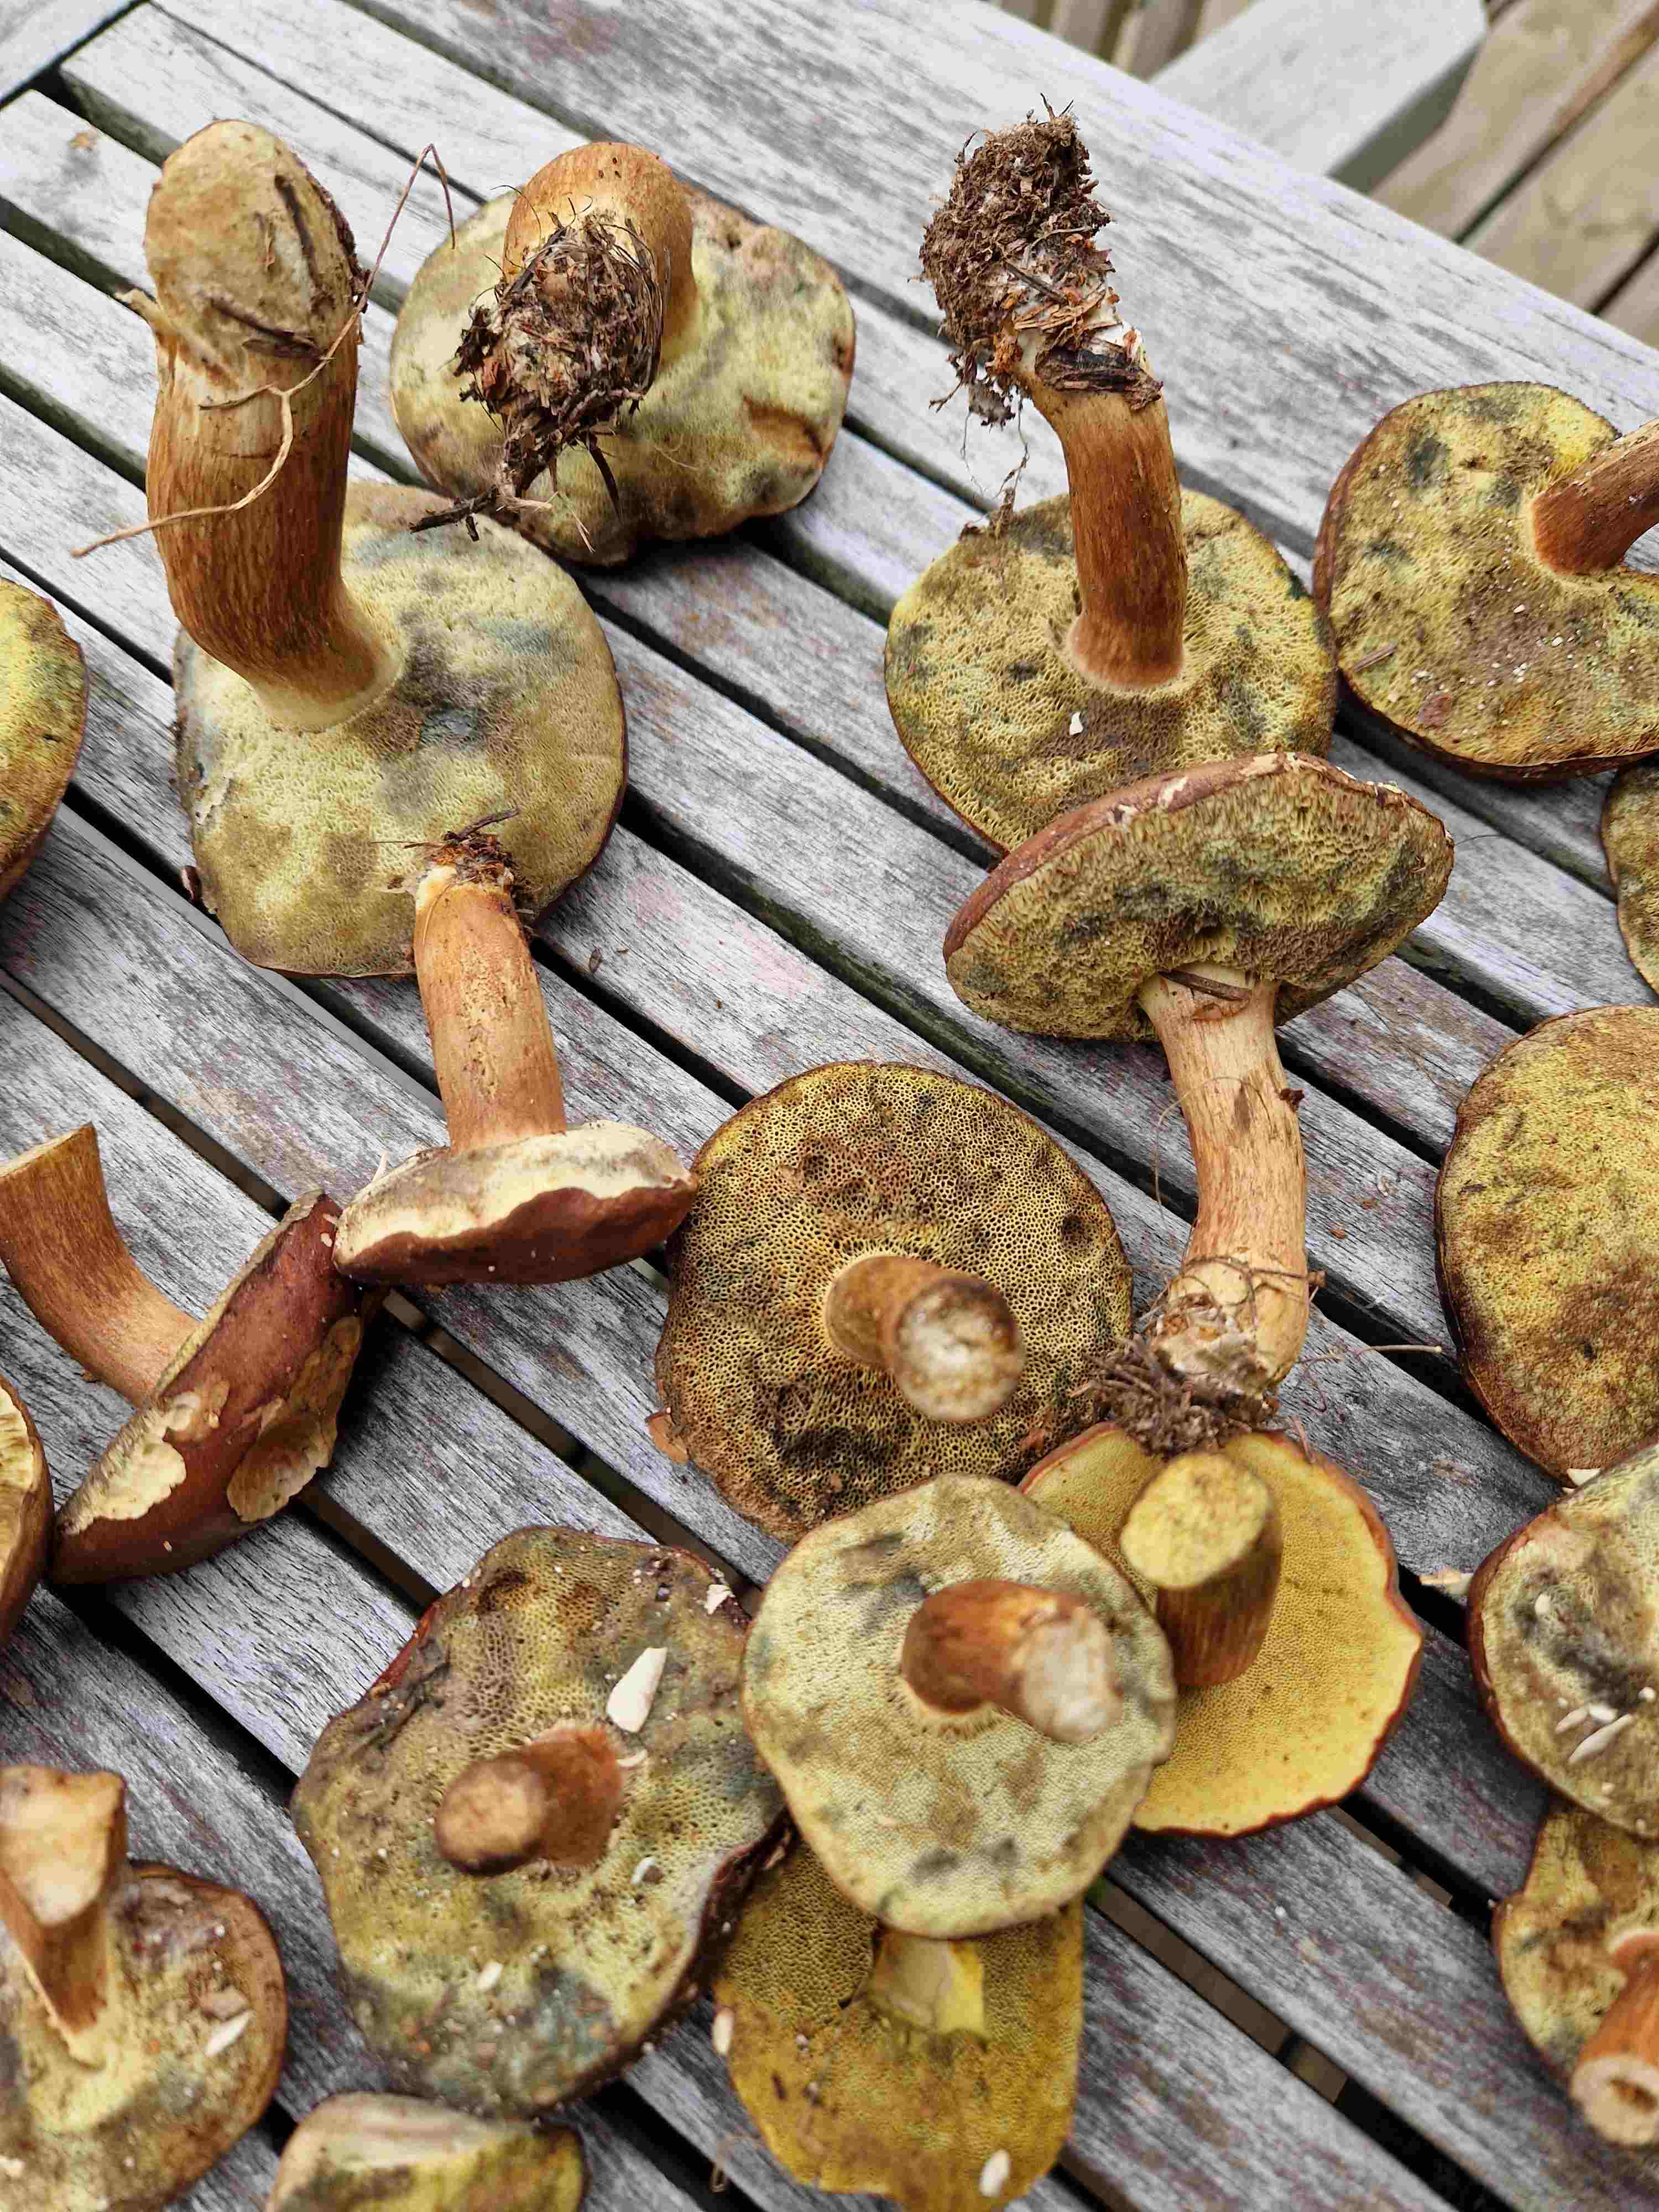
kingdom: Fungi
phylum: Basidiomycota
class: Agaricomycetes
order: Boletales
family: Boletaceae
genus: Imleria
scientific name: Imleria badia
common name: brunstokket rørhat
